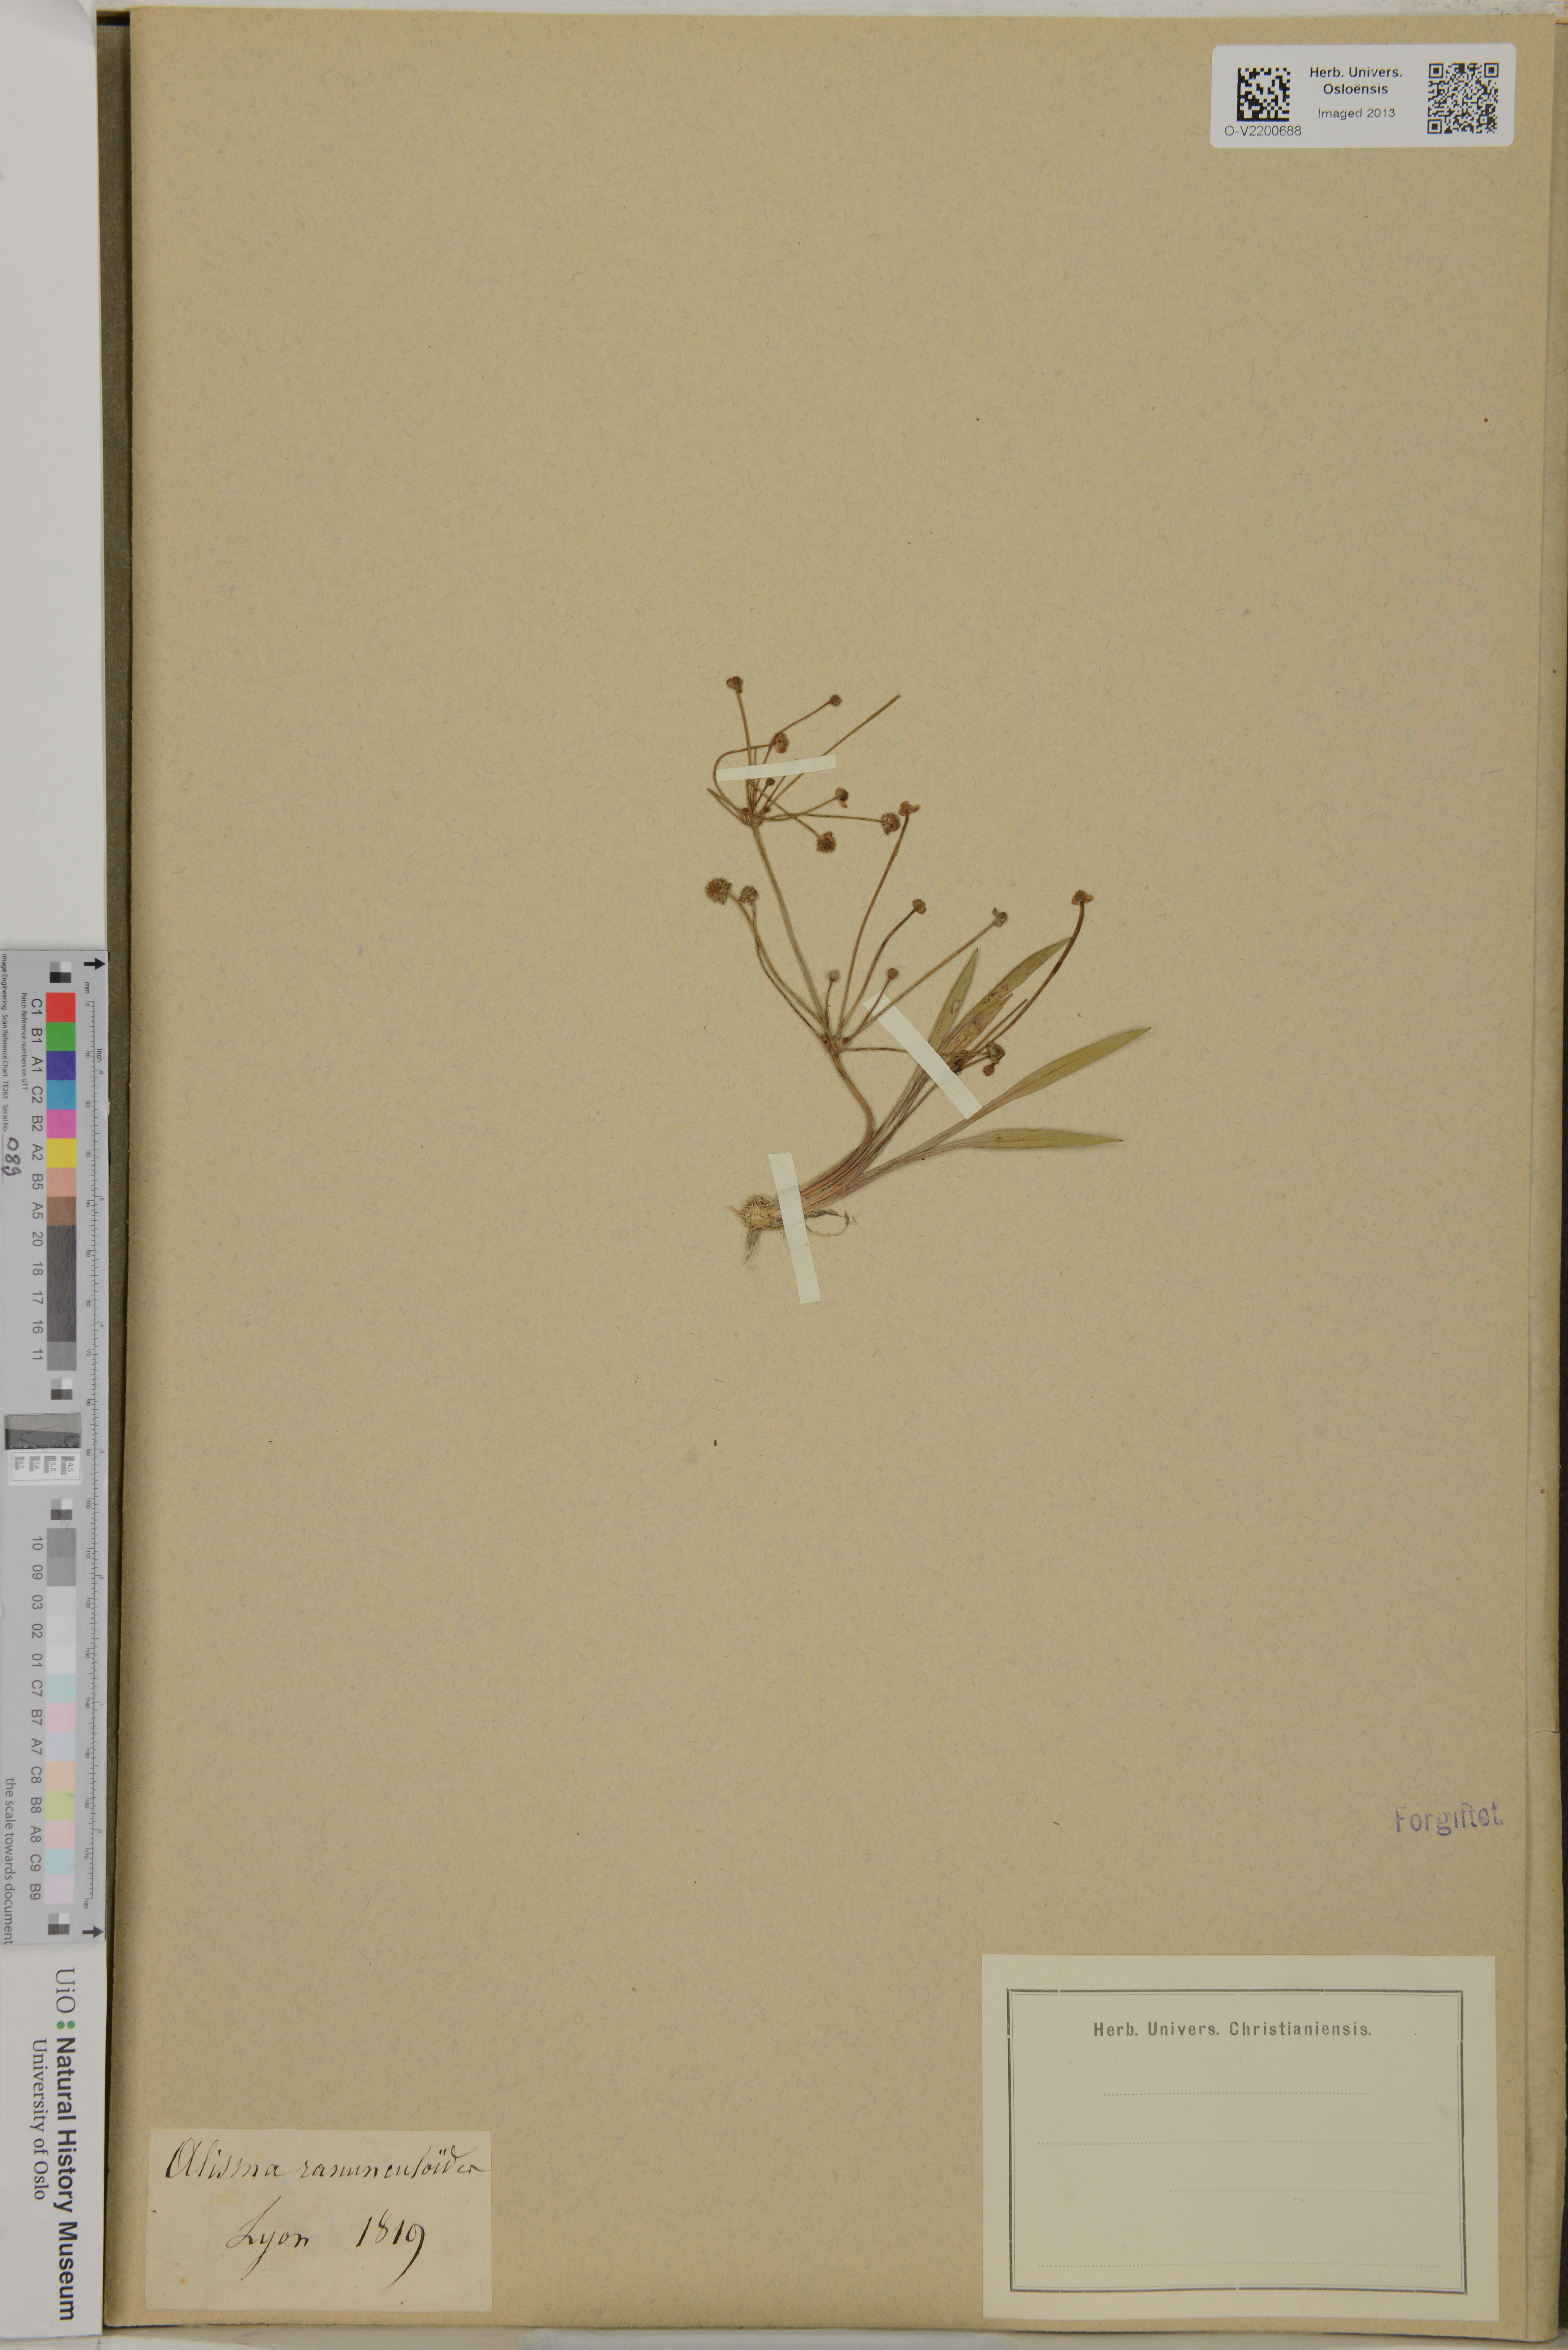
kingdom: Plantae
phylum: Tracheophyta
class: Liliopsida
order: Alismatales
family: Alismataceae
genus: Baldellia
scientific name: Baldellia ranunculoides
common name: Lesser water-plantain
